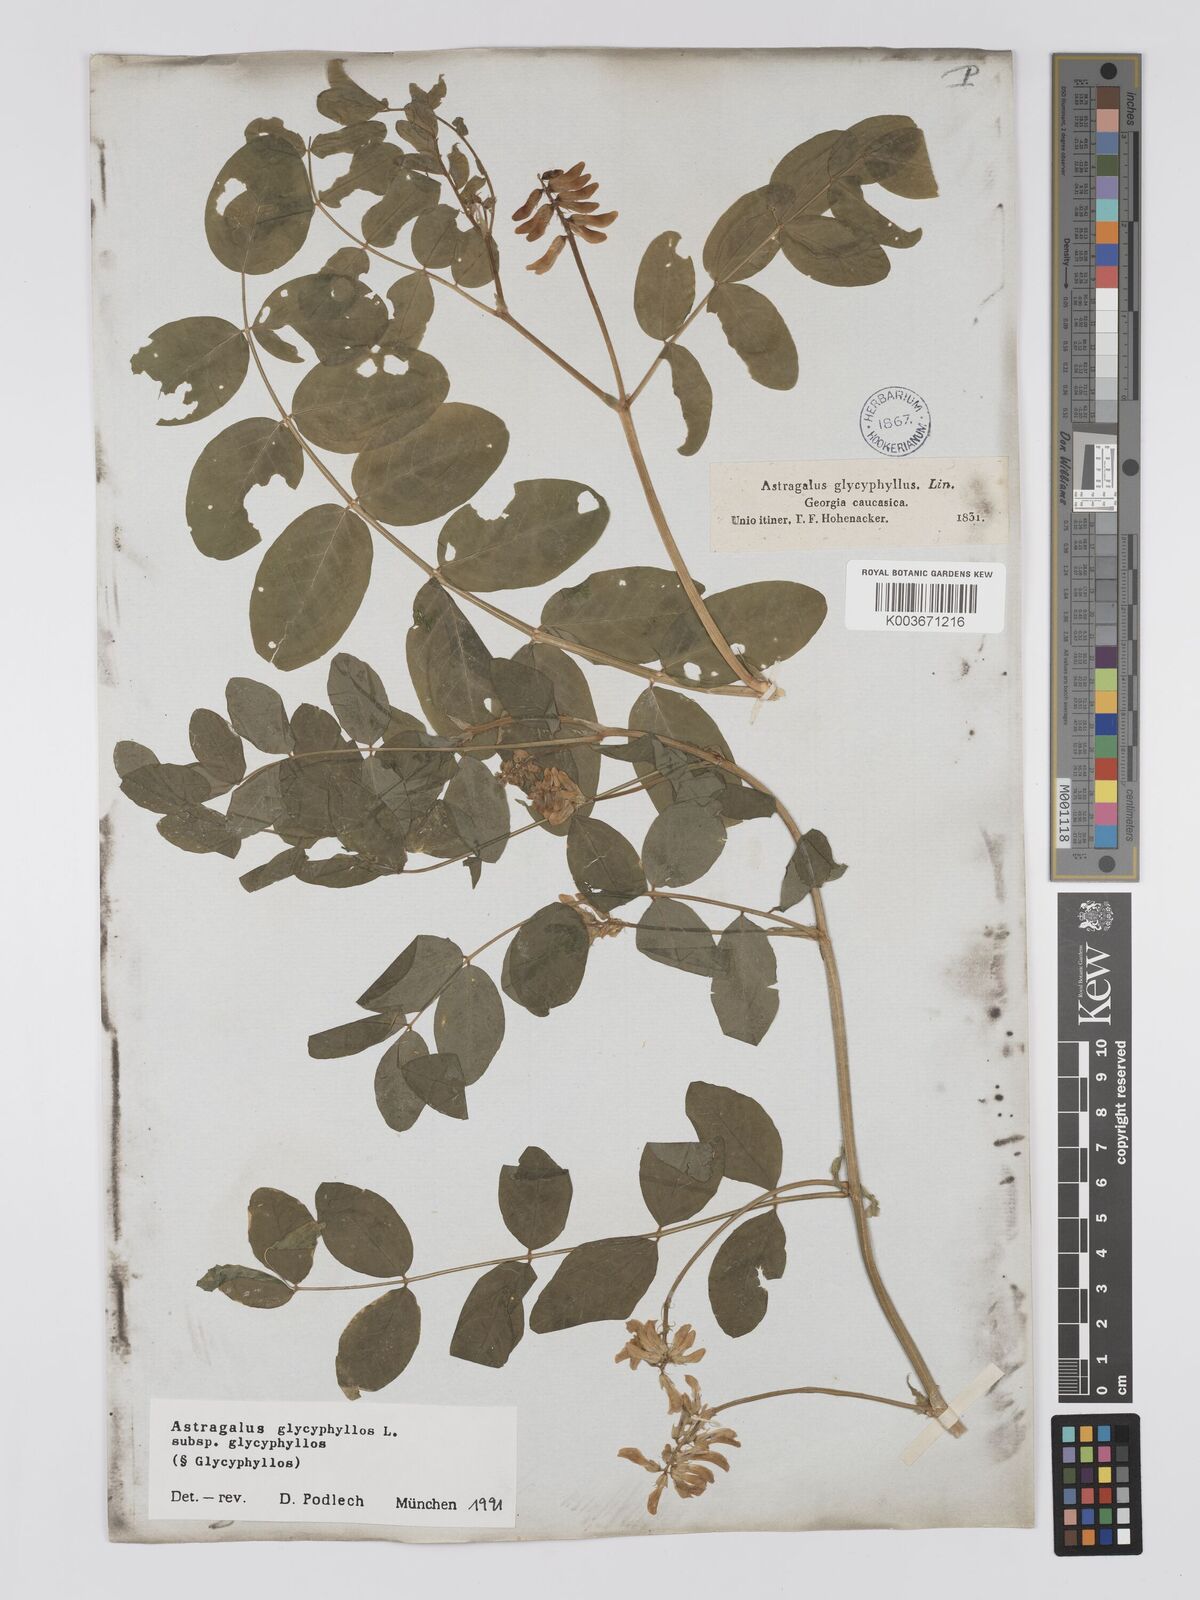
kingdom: Plantae
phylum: Tracheophyta
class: Magnoliopsida
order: Fabales
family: Fabaceae
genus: Astragalus
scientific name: Astragalus glycyphyllos
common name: Wild liquorice
